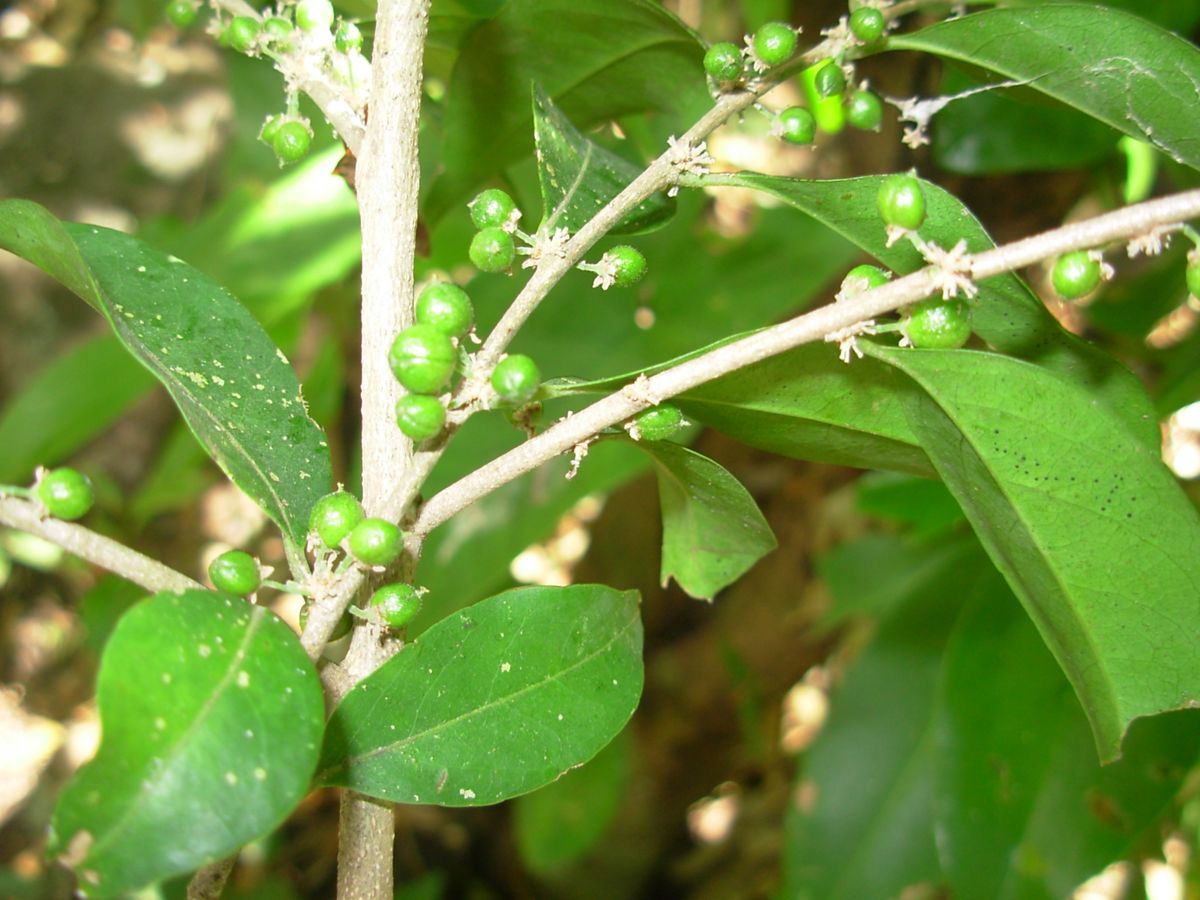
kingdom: Plantae
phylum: Tracheophyta
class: Magnoliopsida
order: Malpighiales
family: Salicaceae
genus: Casearia
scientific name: Casearia sylvestris
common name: Wild sage
